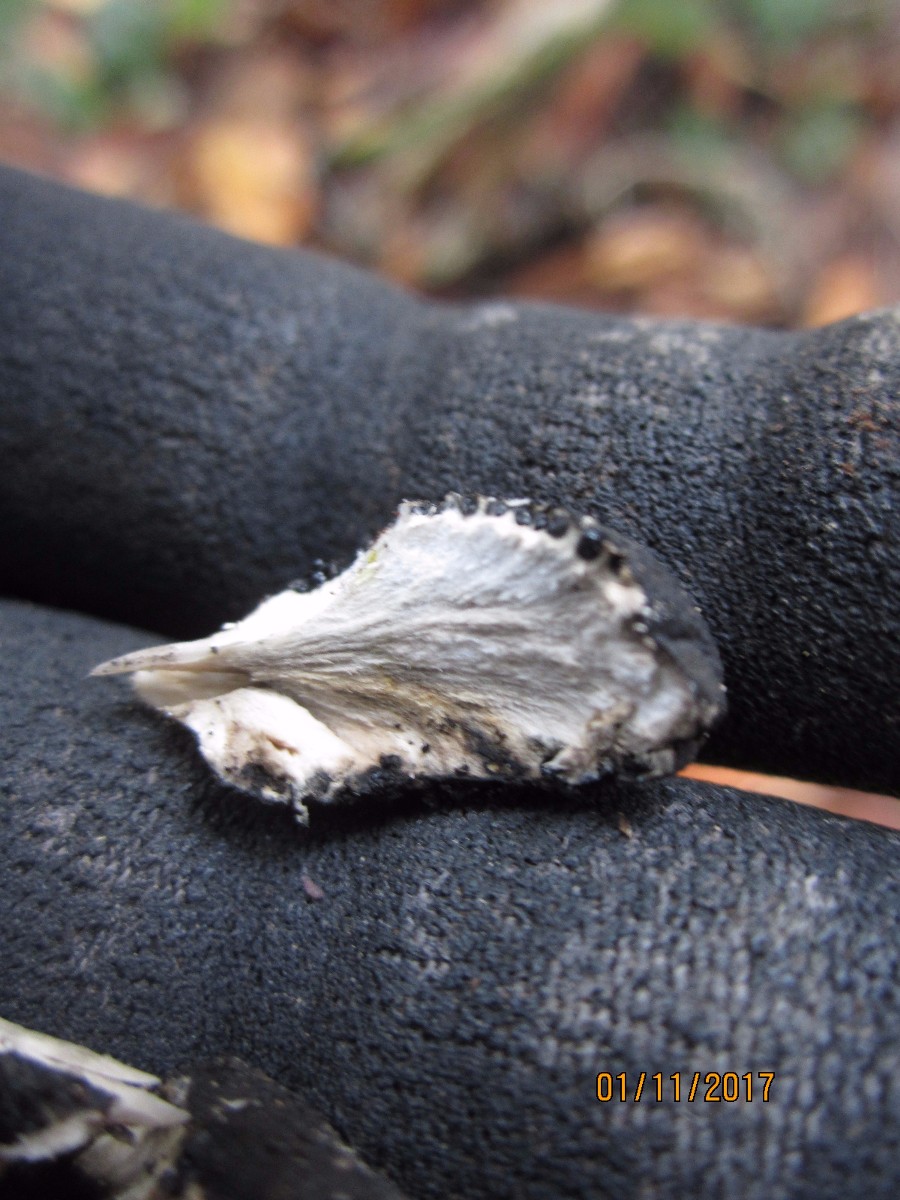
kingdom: Fungi
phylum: Ascomycota
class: Sordariomycetes
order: Xylariales
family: Xylariaceae
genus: Xylaria
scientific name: Xylaria polymorpha
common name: kølle-stødsvamp
